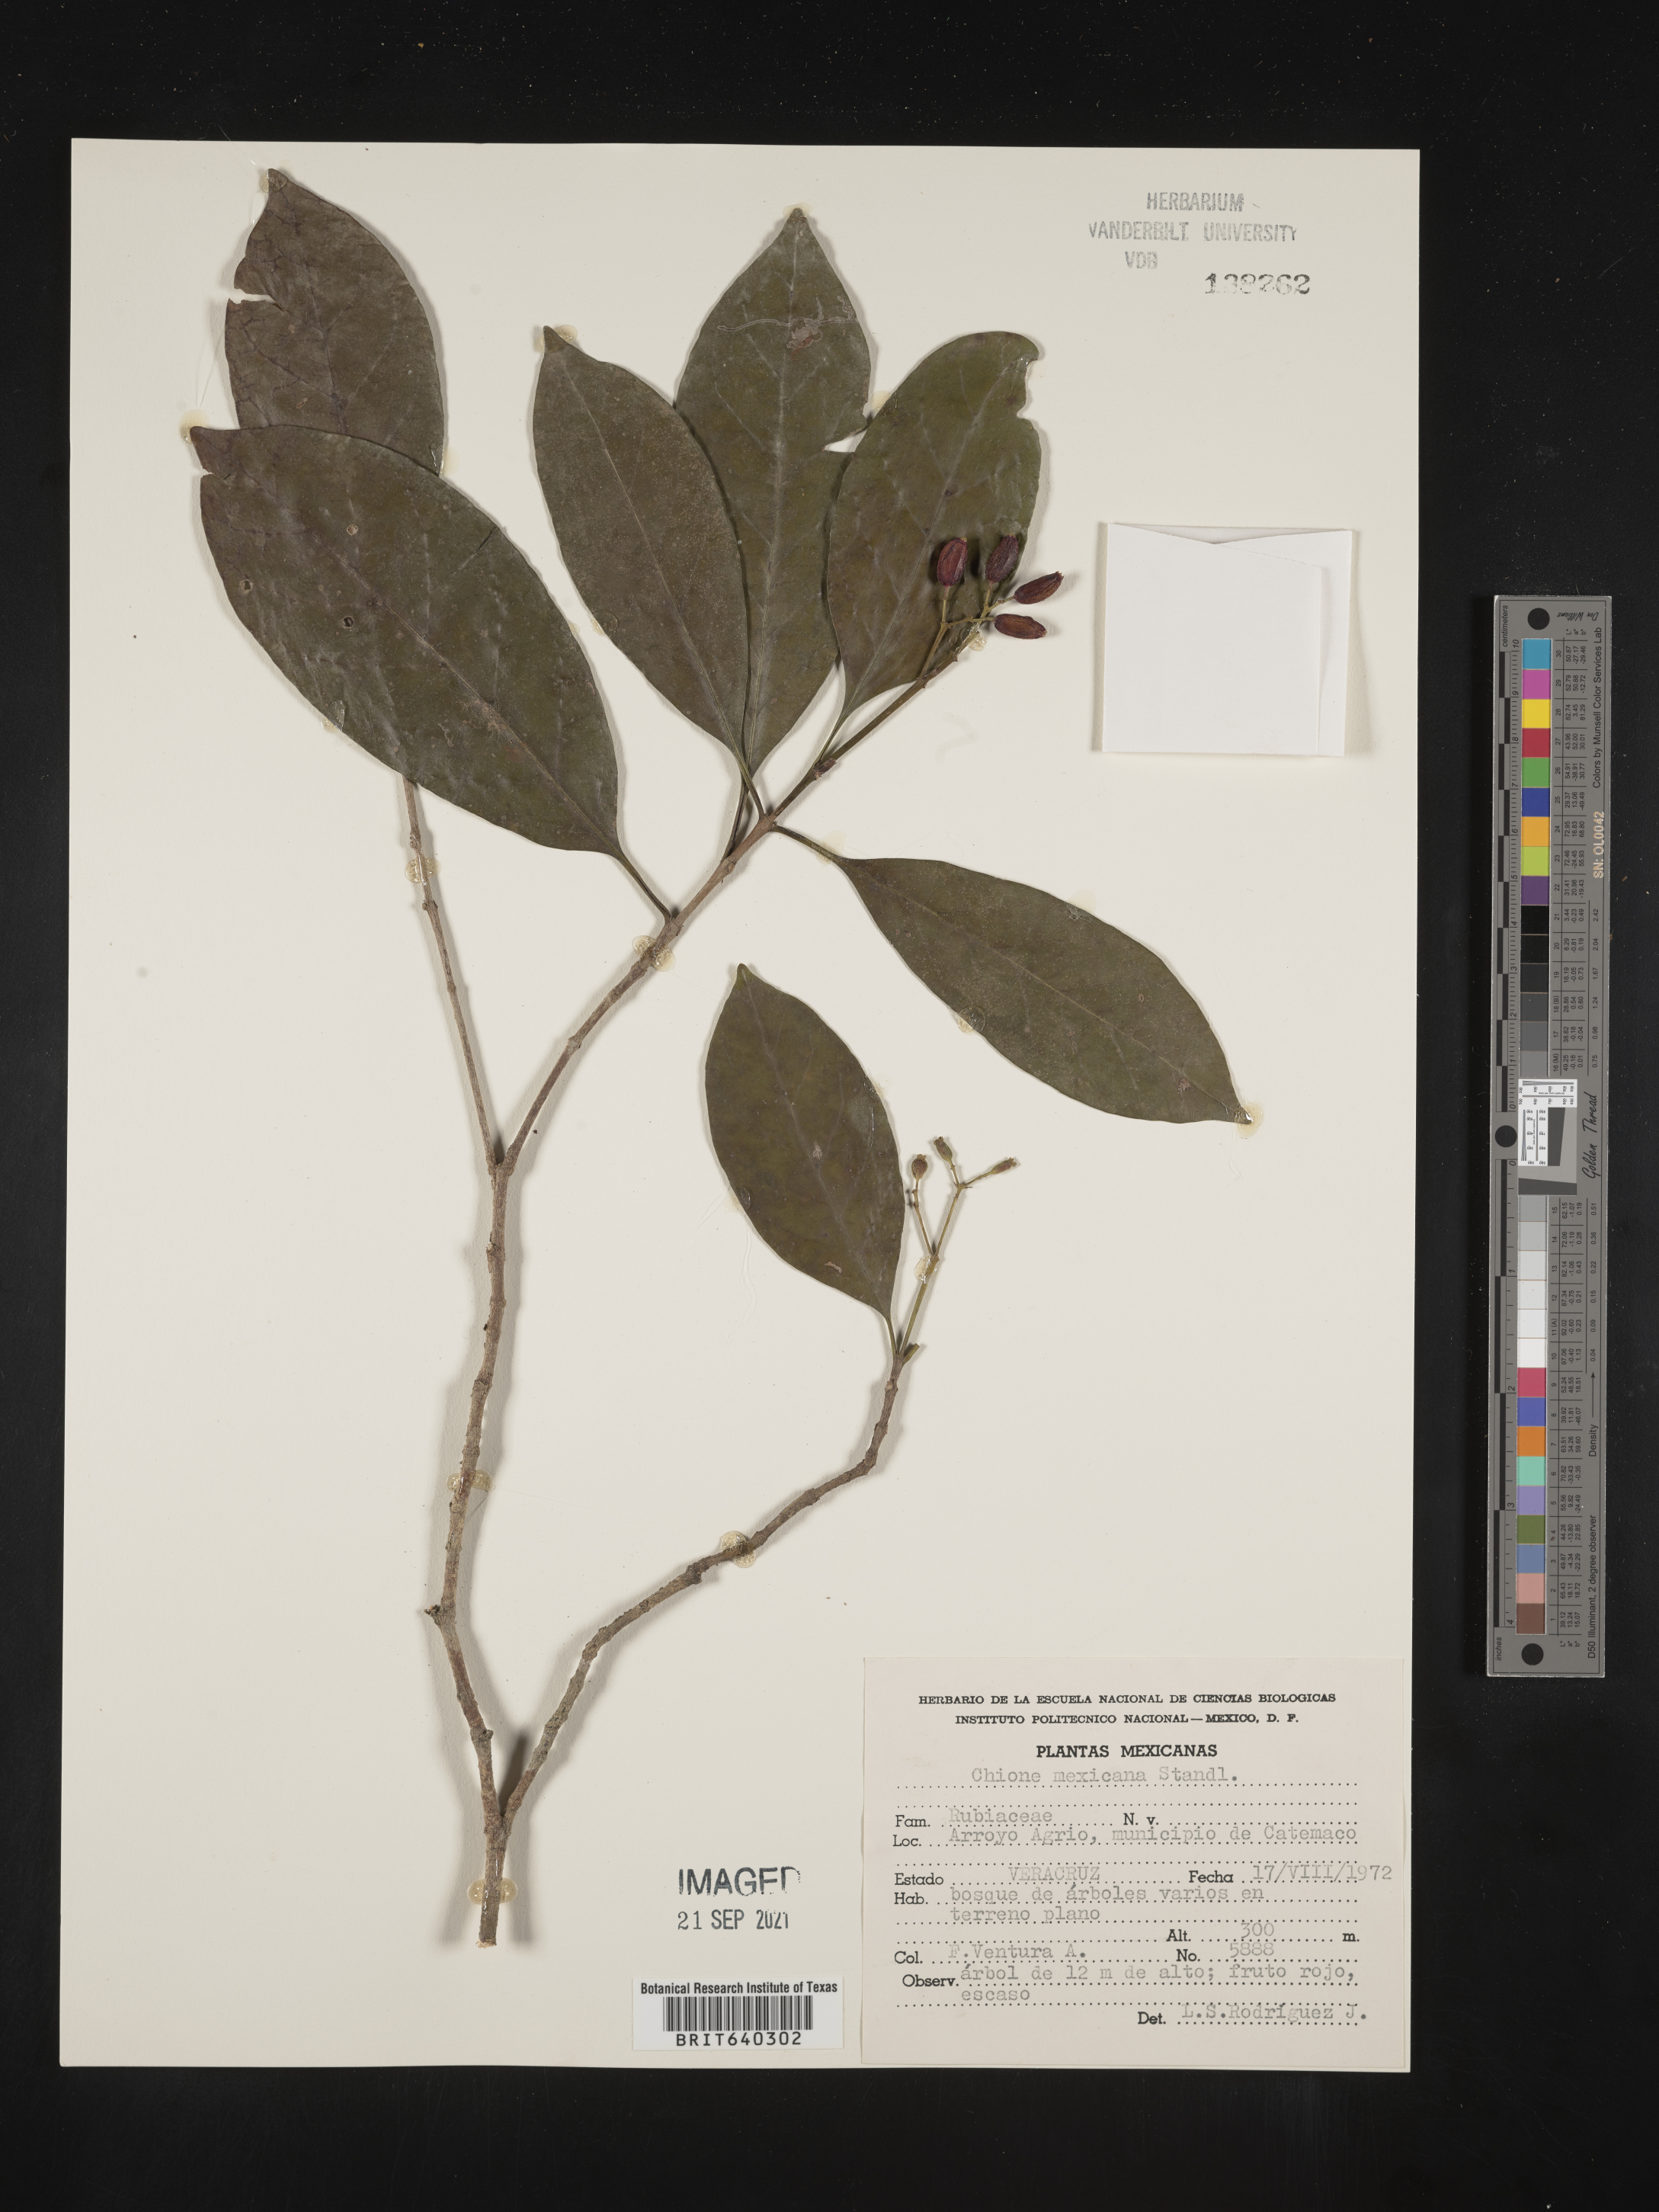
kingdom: Plantae
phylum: Tracheophyta
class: Magnoliopsida
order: Gentianales
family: Rubiaceae
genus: Chione
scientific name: Chione venosa
